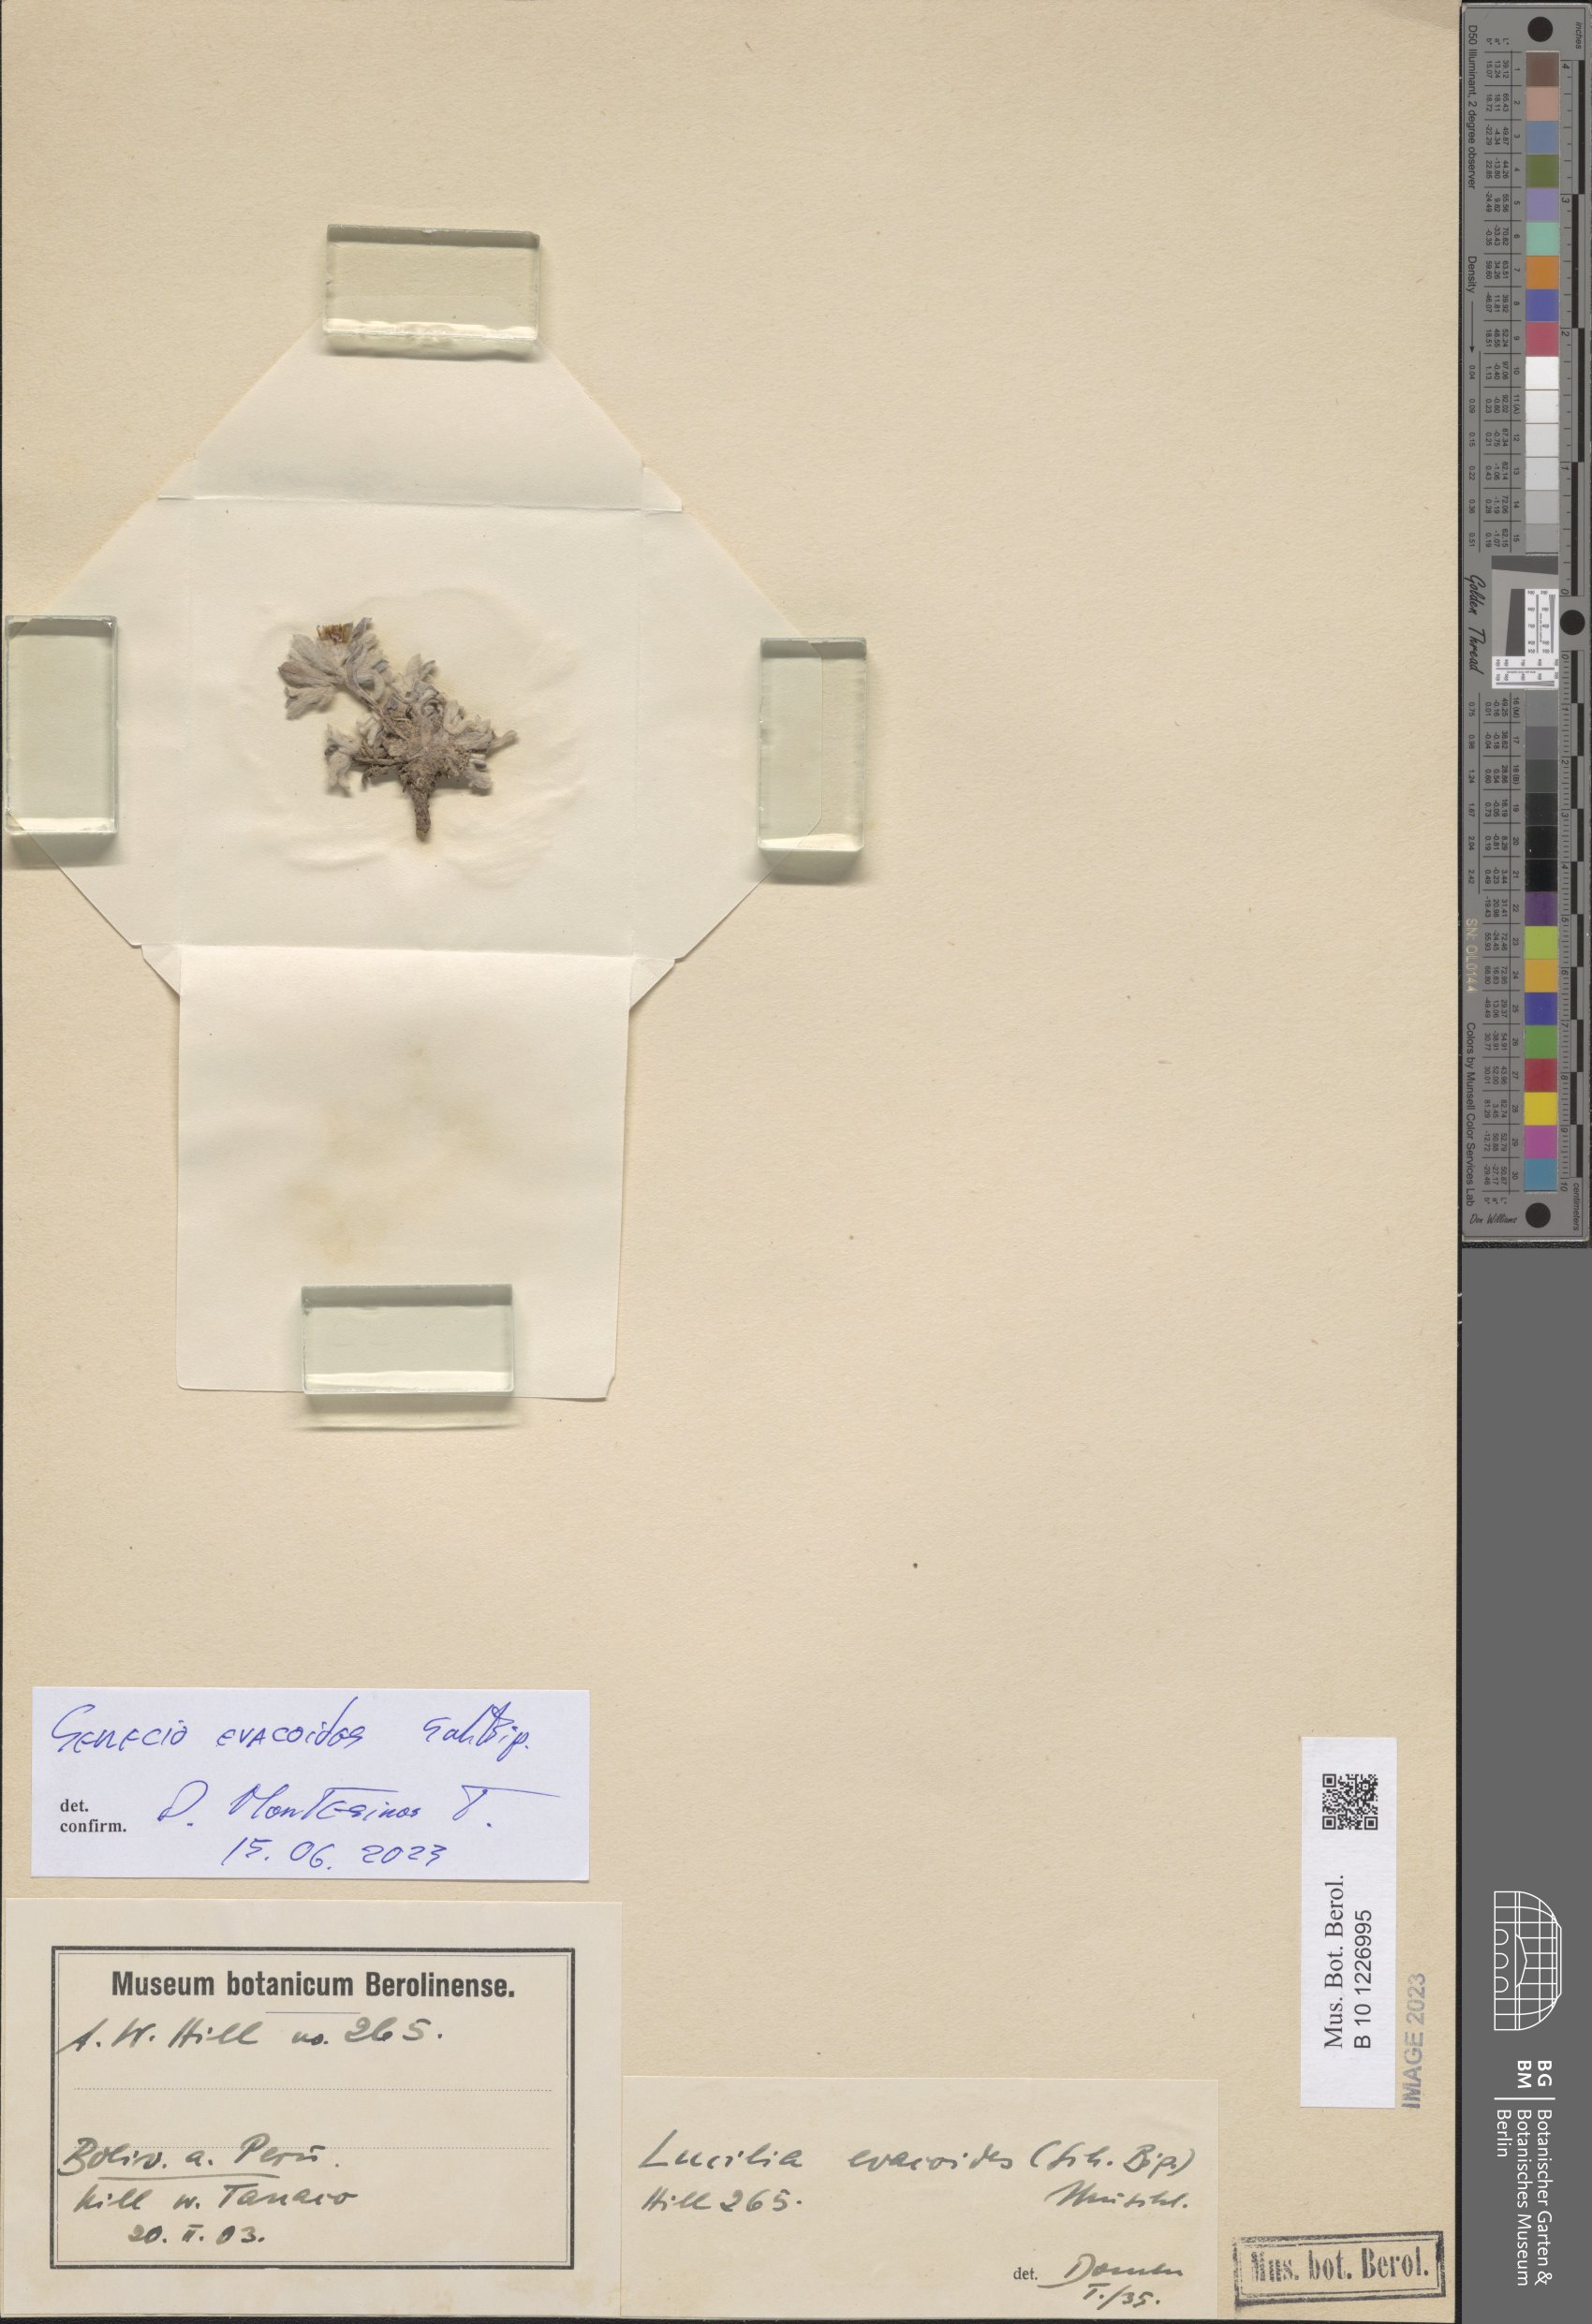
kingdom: Plantae
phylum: Tracheophyta
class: Magnoliopsida
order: Asterales
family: Asteraceae
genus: Senecio
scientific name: Senecio evacoides
